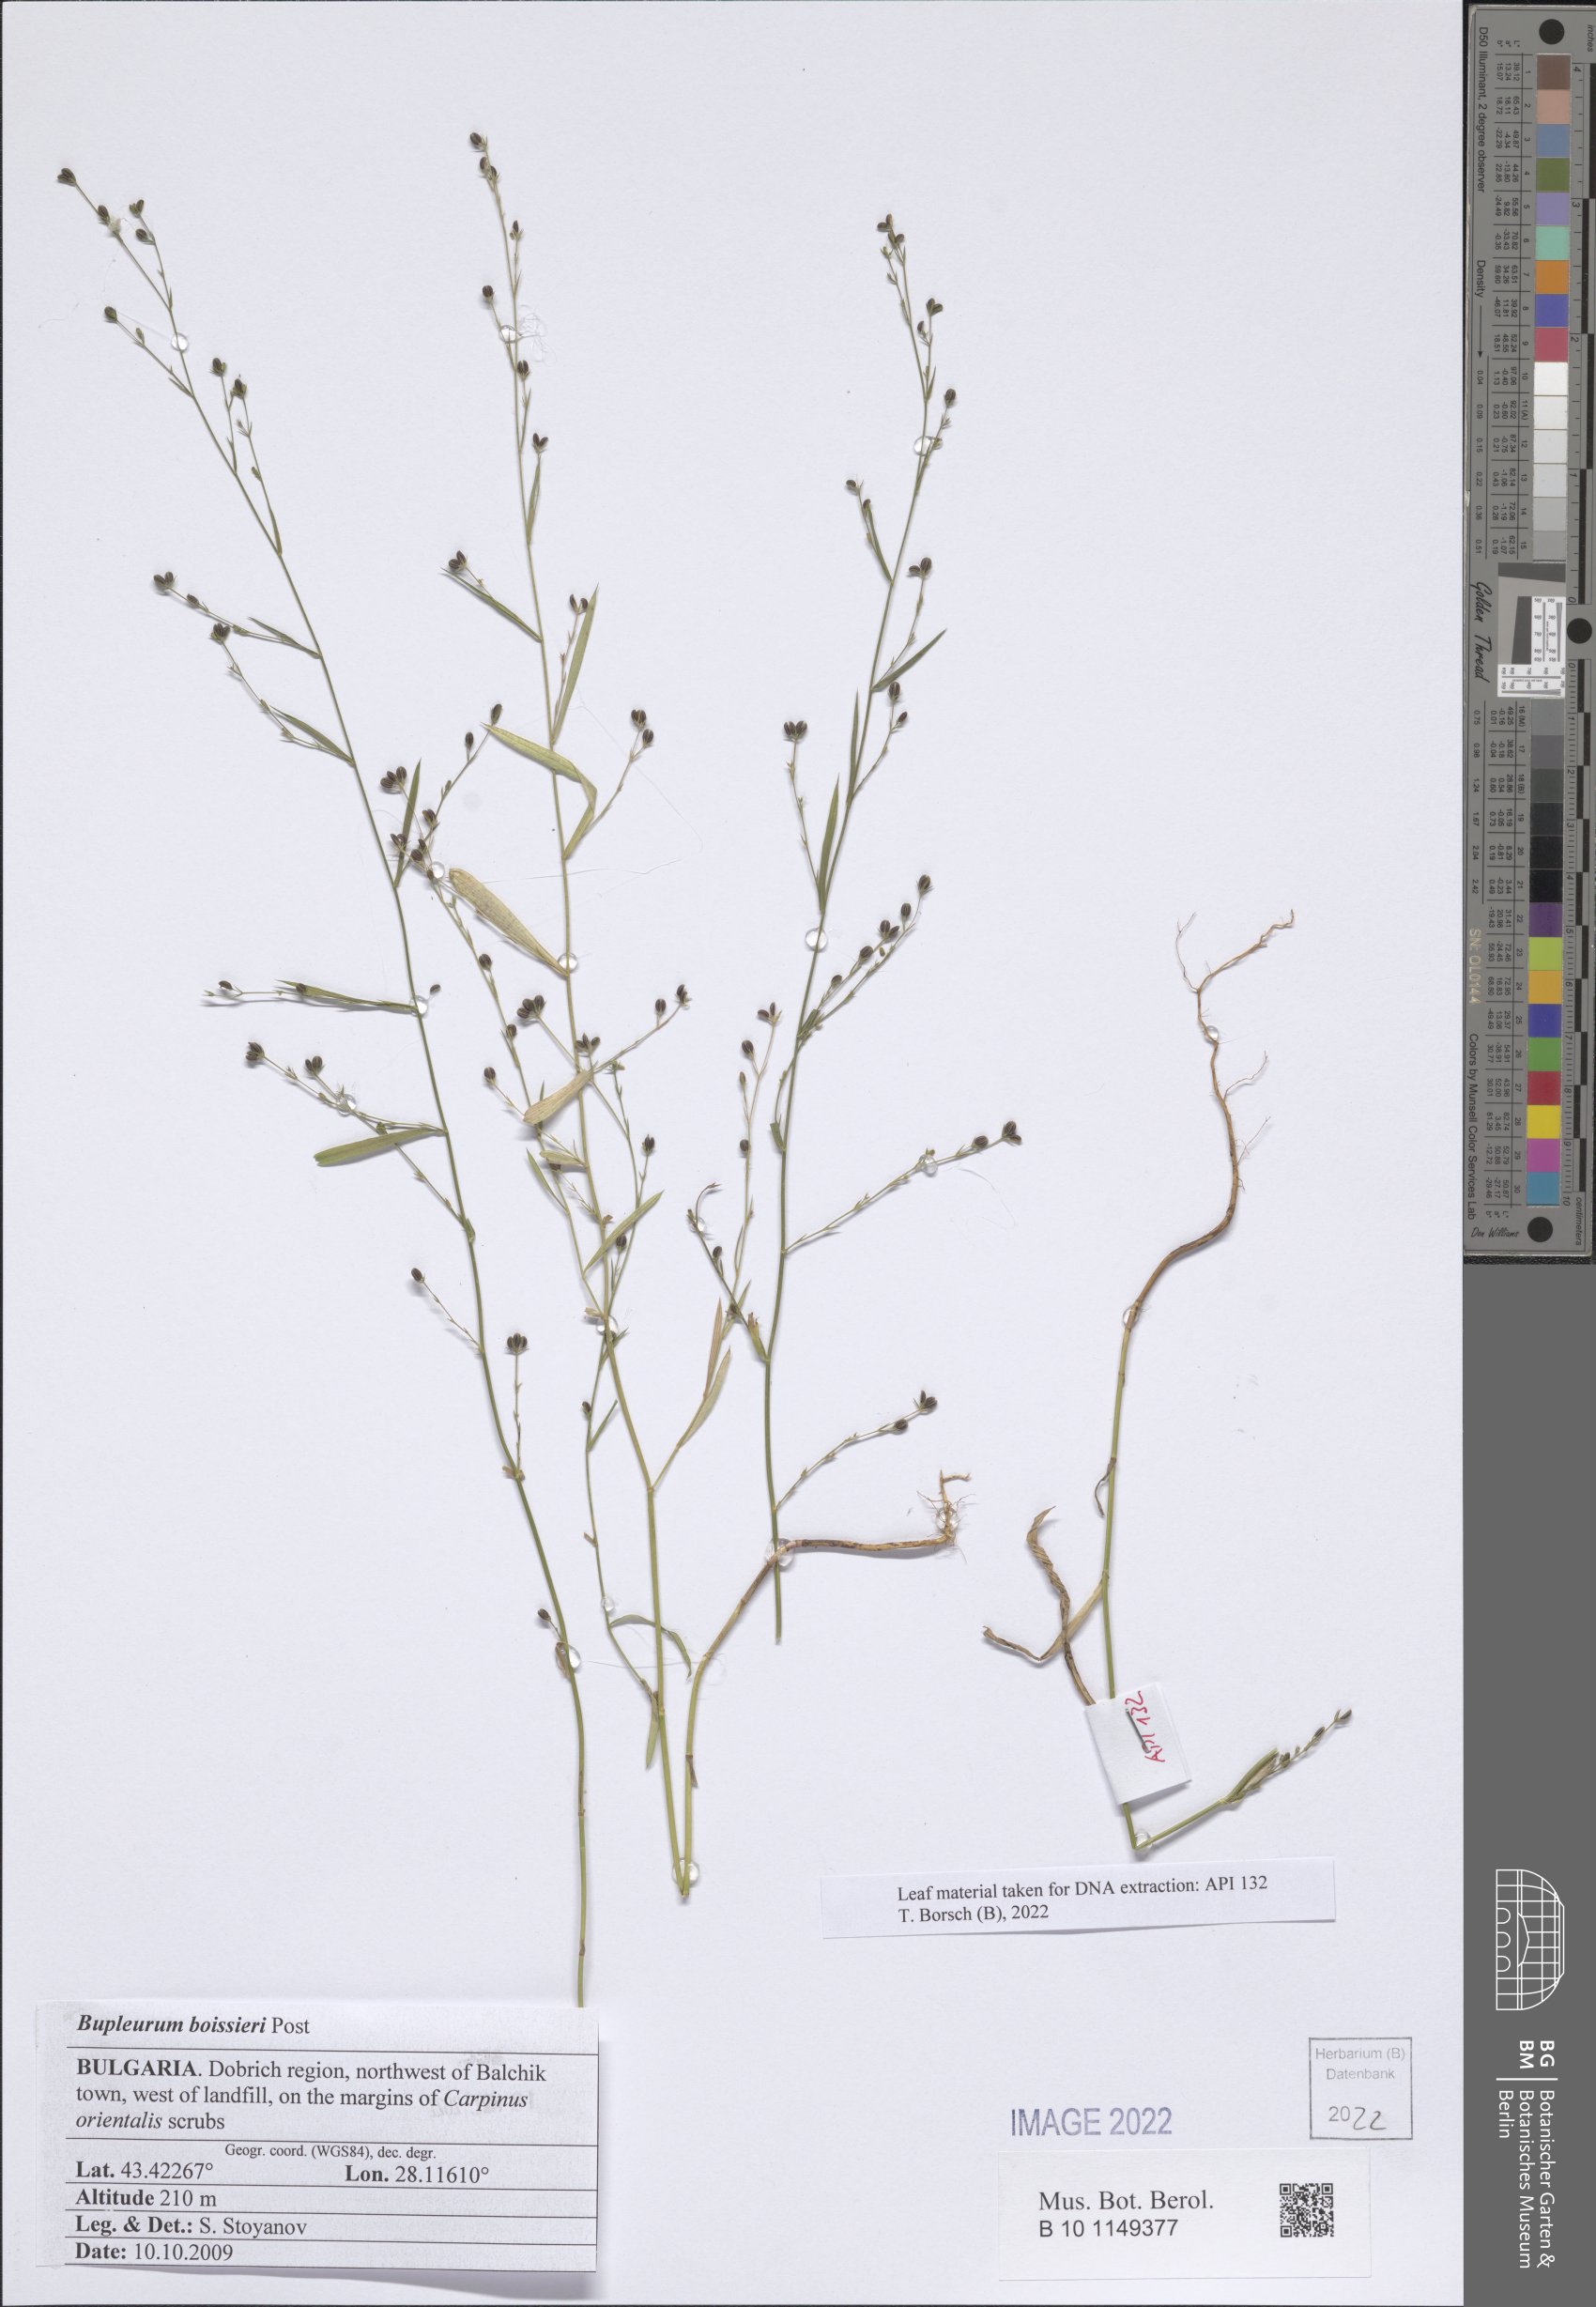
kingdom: Plantae
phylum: Tracheophyta
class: Magnoliopsida
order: Apiales
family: Apiaceae
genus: Bupleurum
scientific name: Bupleurum boissieri
